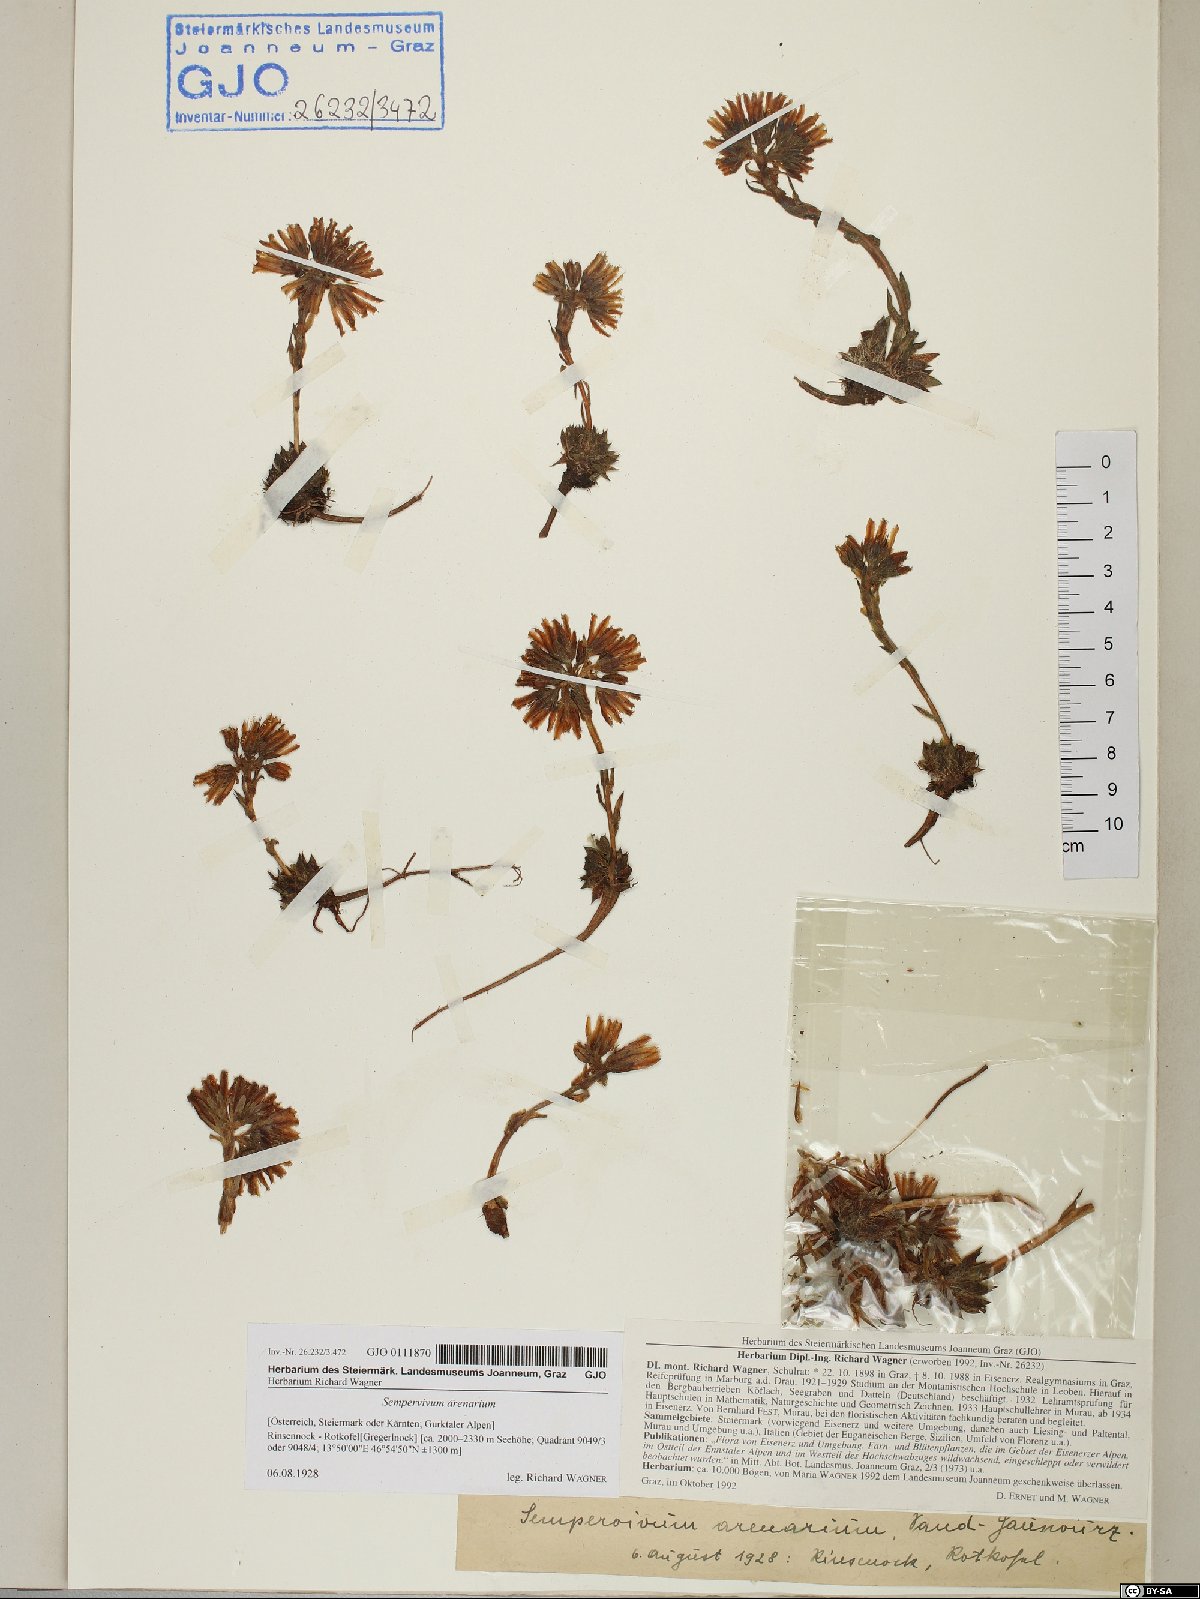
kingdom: Plantae
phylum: Tracheophyta
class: Magnoliopsida
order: Saxifragales
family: Crassulaceae
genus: Sempervivum
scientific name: Sempervivum globiferum
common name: Rolling hen-and-chicks
